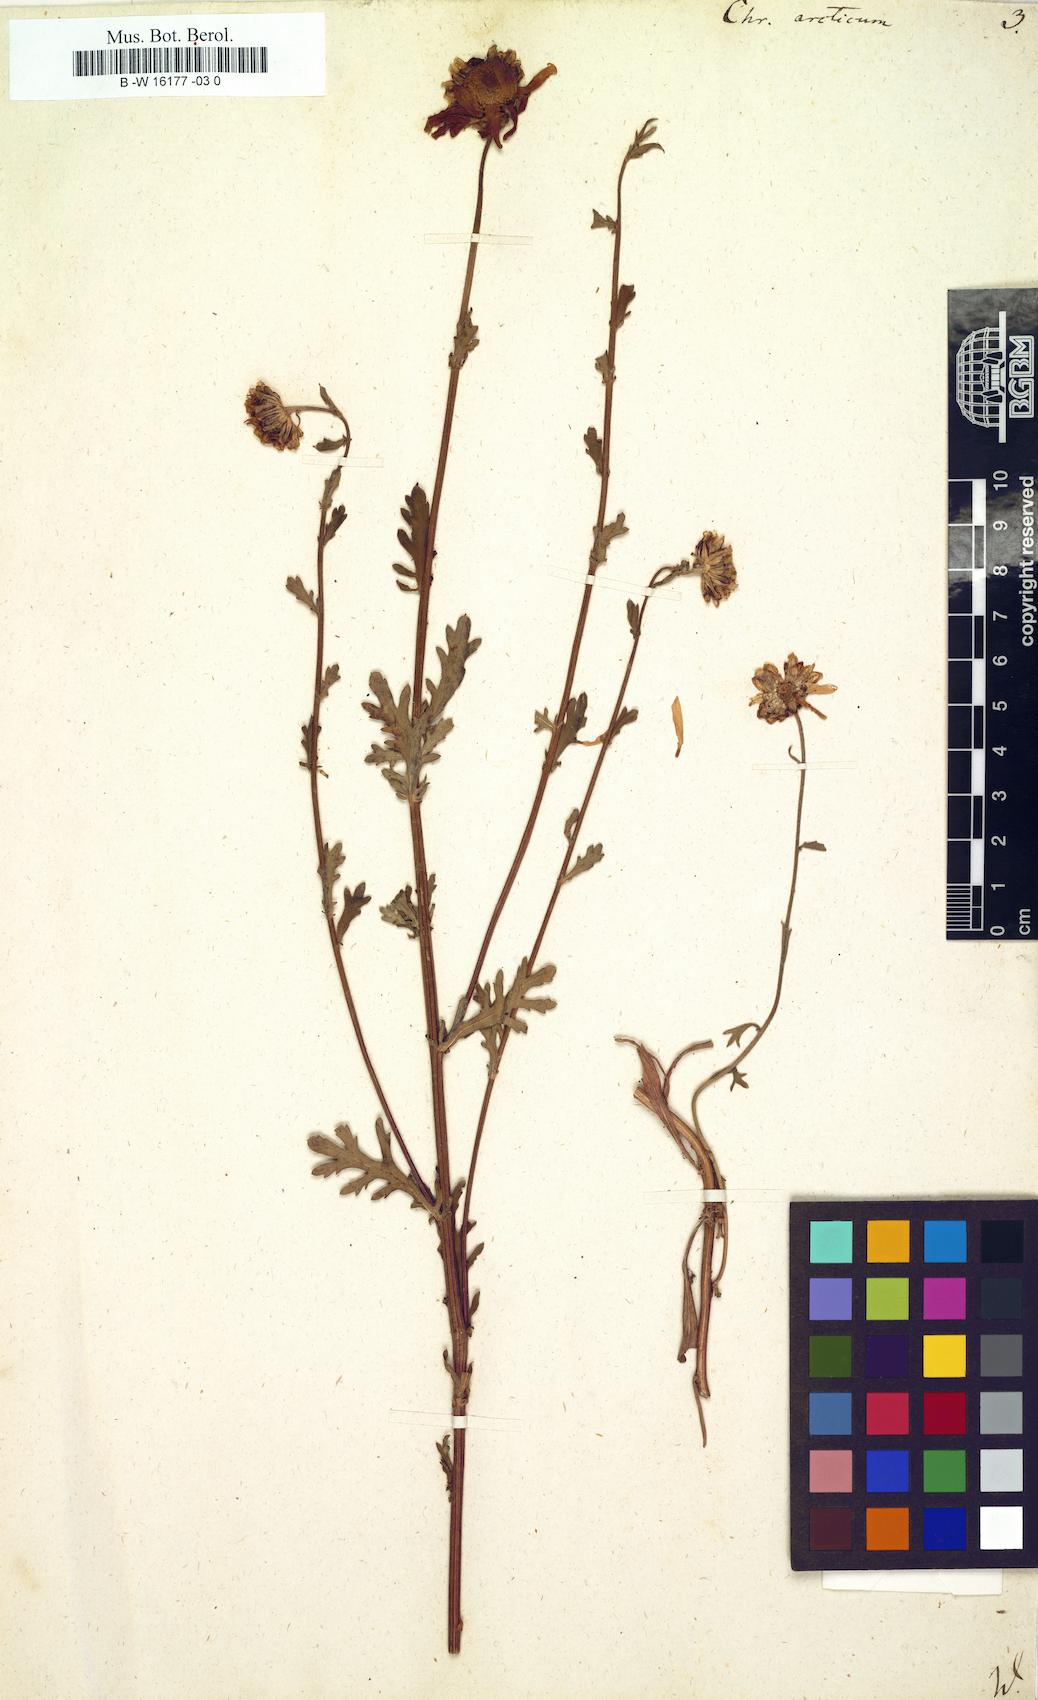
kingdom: Plantae
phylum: Tracheophyta
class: Magnoliopsida
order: Asterales
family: Asteraceae
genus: Arctanthemum
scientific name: Arctanthemum arcticum
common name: Arctic daisy
